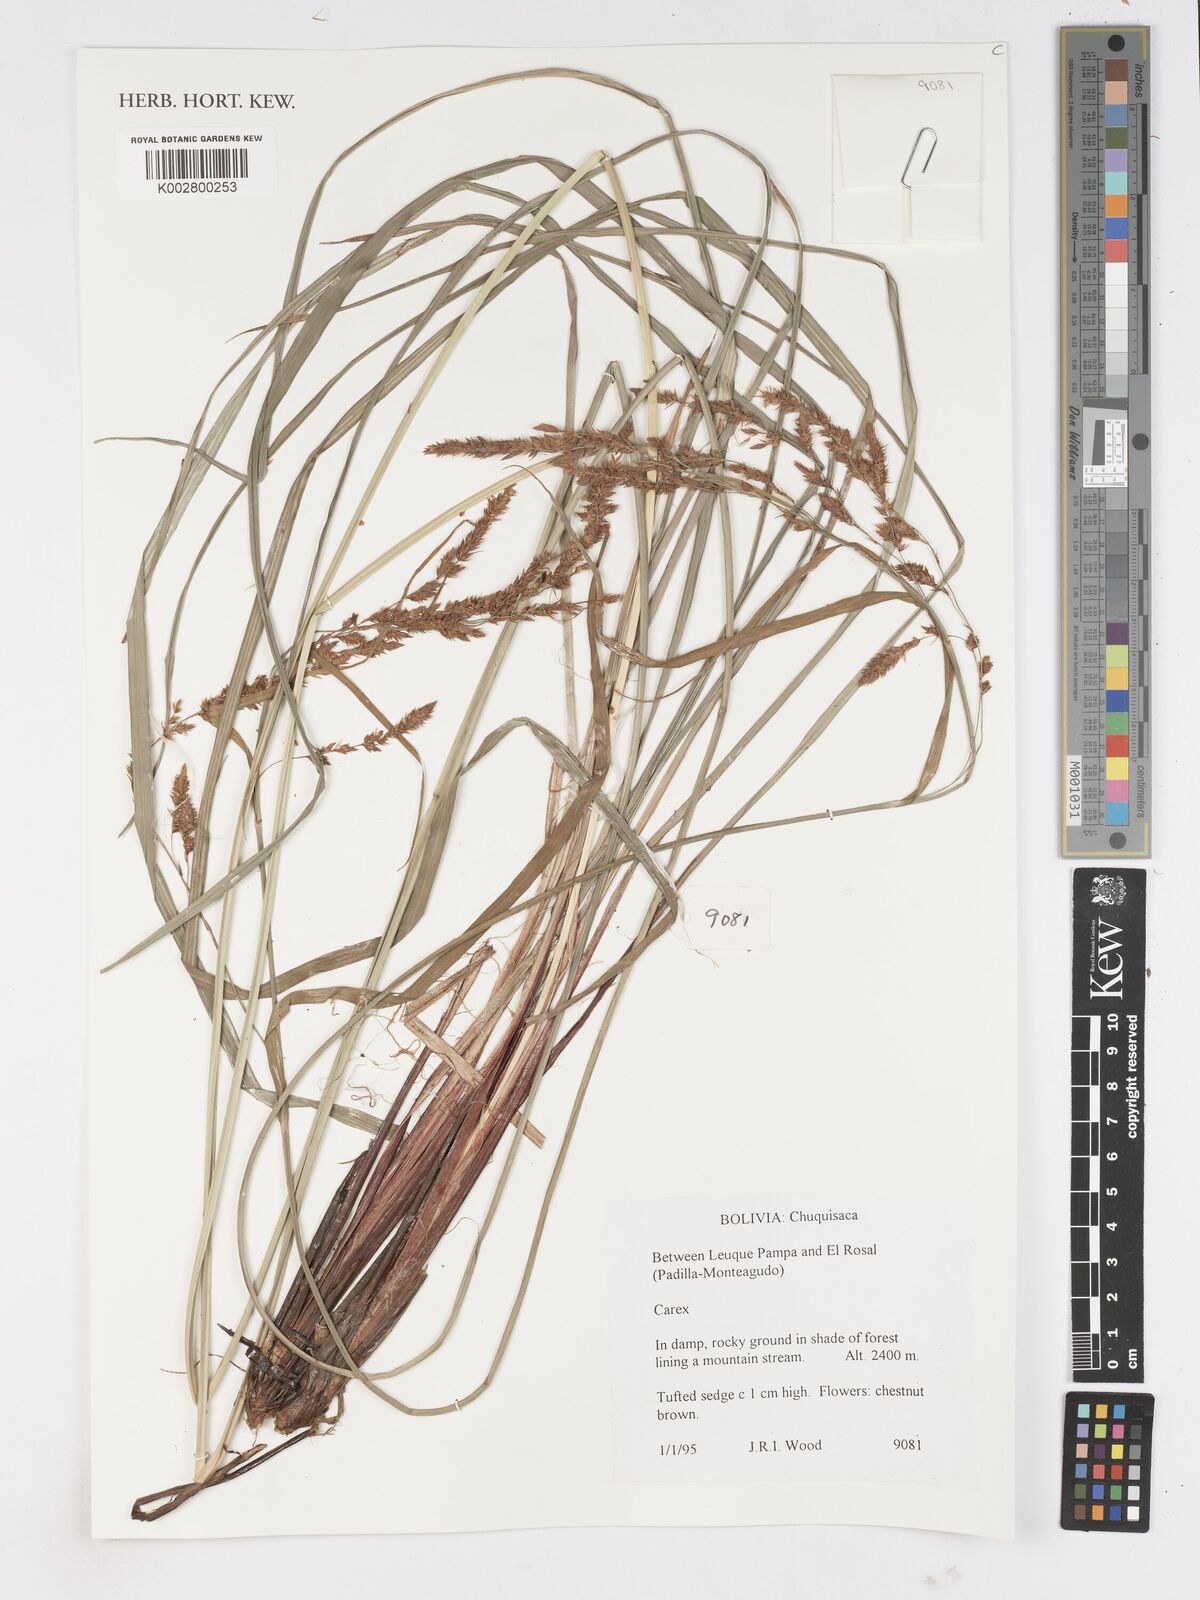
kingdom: Plantae
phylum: Tracheophyta
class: Liliopsida
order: Poales
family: Cyperaceae
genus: Carex
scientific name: Carex
